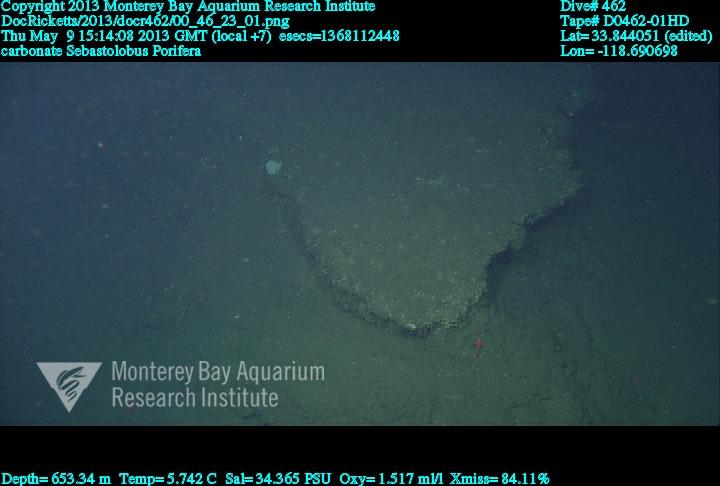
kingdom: Animalia
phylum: Porifera
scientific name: Porifera
